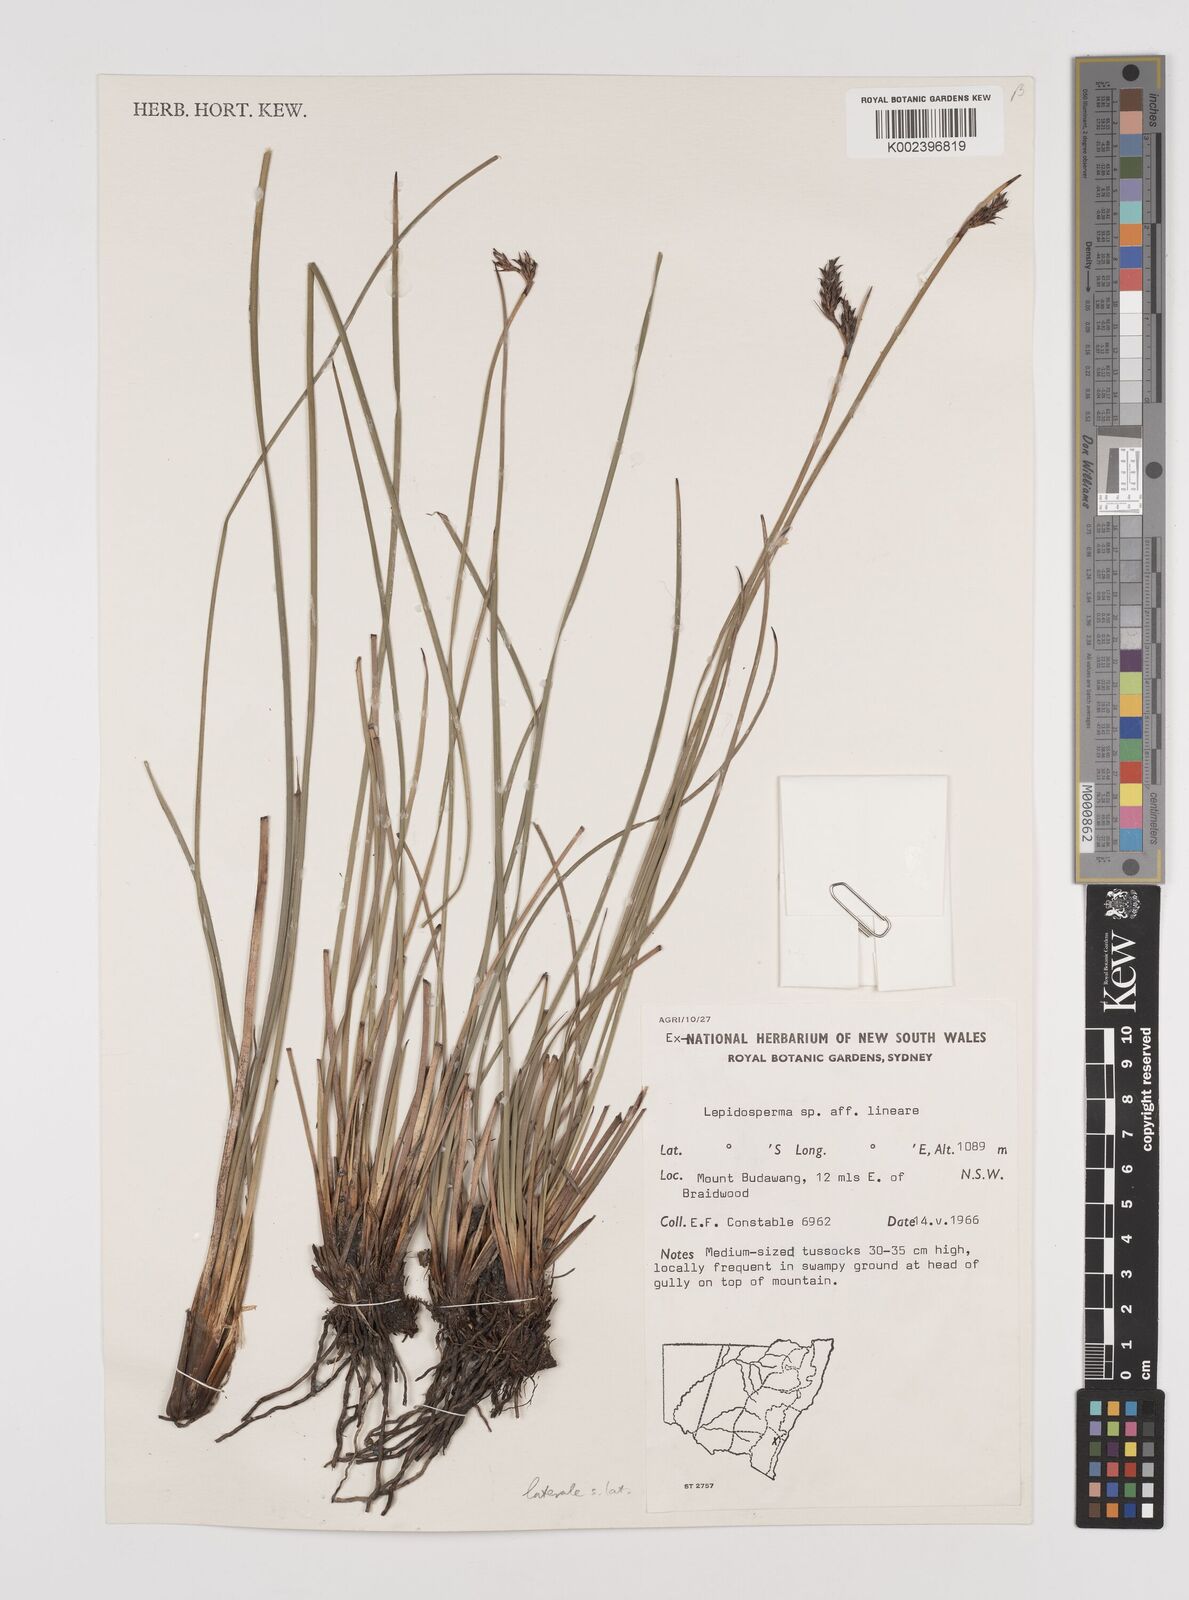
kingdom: Plantae
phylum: Tracheophyta
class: Liliopsida
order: Poales
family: Cyperaceae
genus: Lepidosperma
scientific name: Lepidosperma laterale
